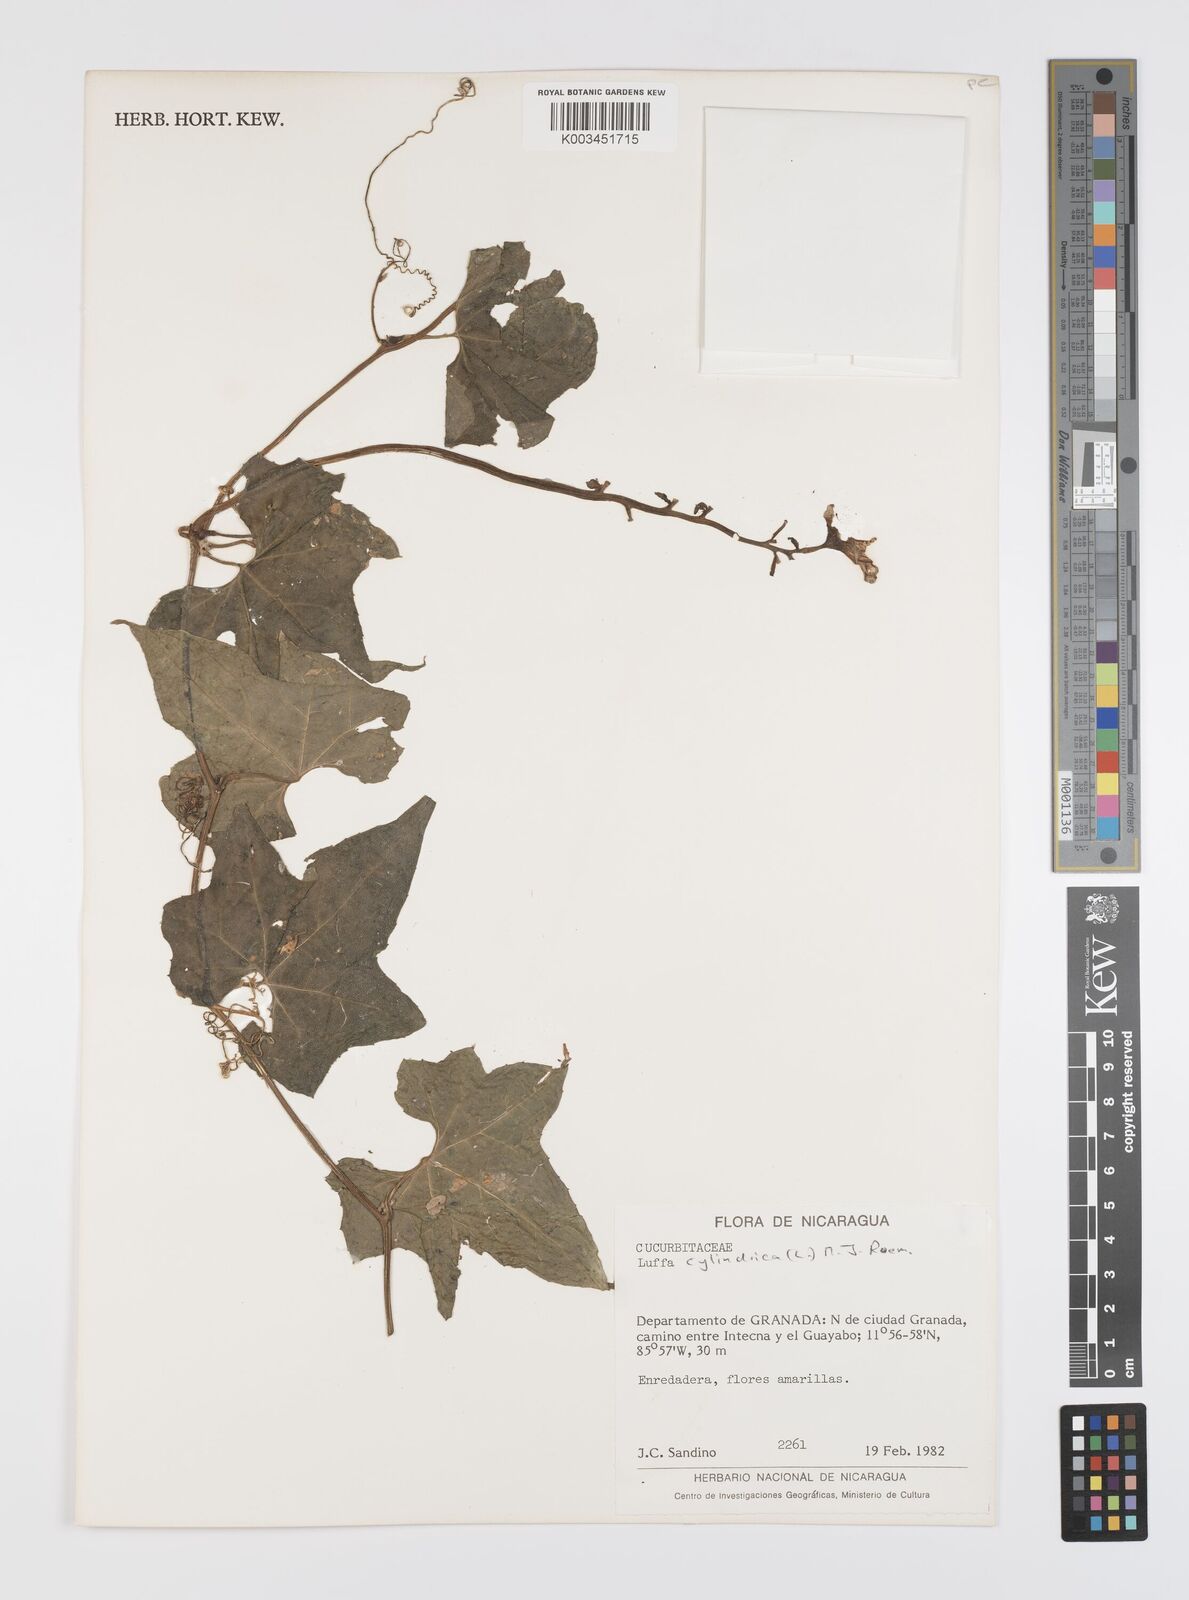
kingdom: Plantae
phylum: Tracheophyta
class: Magnoliopsida
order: Cucurbitales
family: Cucurbitaceae
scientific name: Cucurbitaceae
